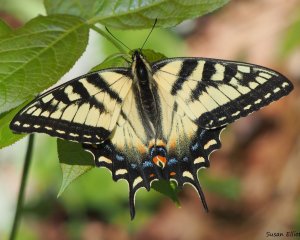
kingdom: Animalia
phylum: Arthropoda
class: Insecta
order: Lepidoptera
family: Papilionidae
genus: Pterourus
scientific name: Pterourus canadensis
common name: Canadian Tiger Swallowtail
